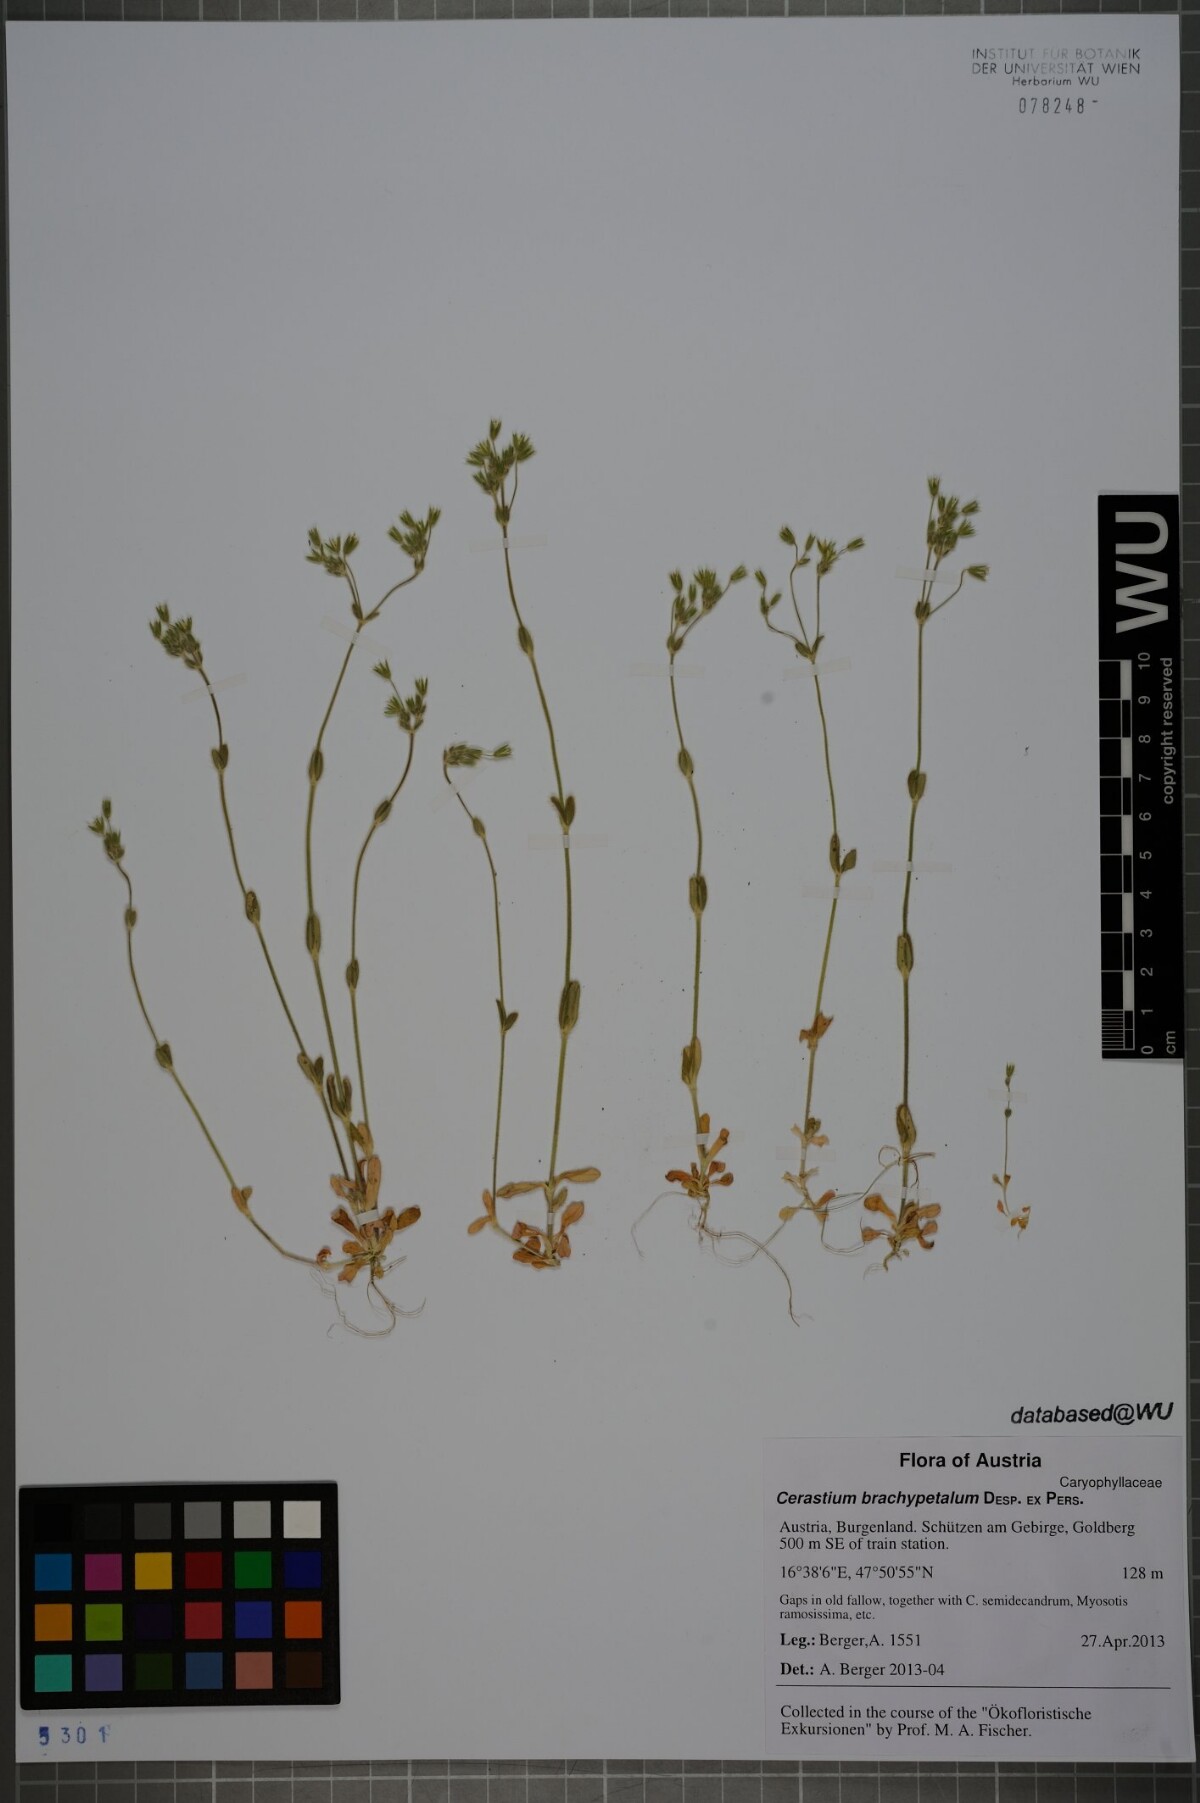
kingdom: Plantae
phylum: Tracheophyta
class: Magnoliopsida
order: Caryophyllales
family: Caryophyllaceae
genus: Cerastium
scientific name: Cerastium brachypetalum
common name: Grey mouse-ear
